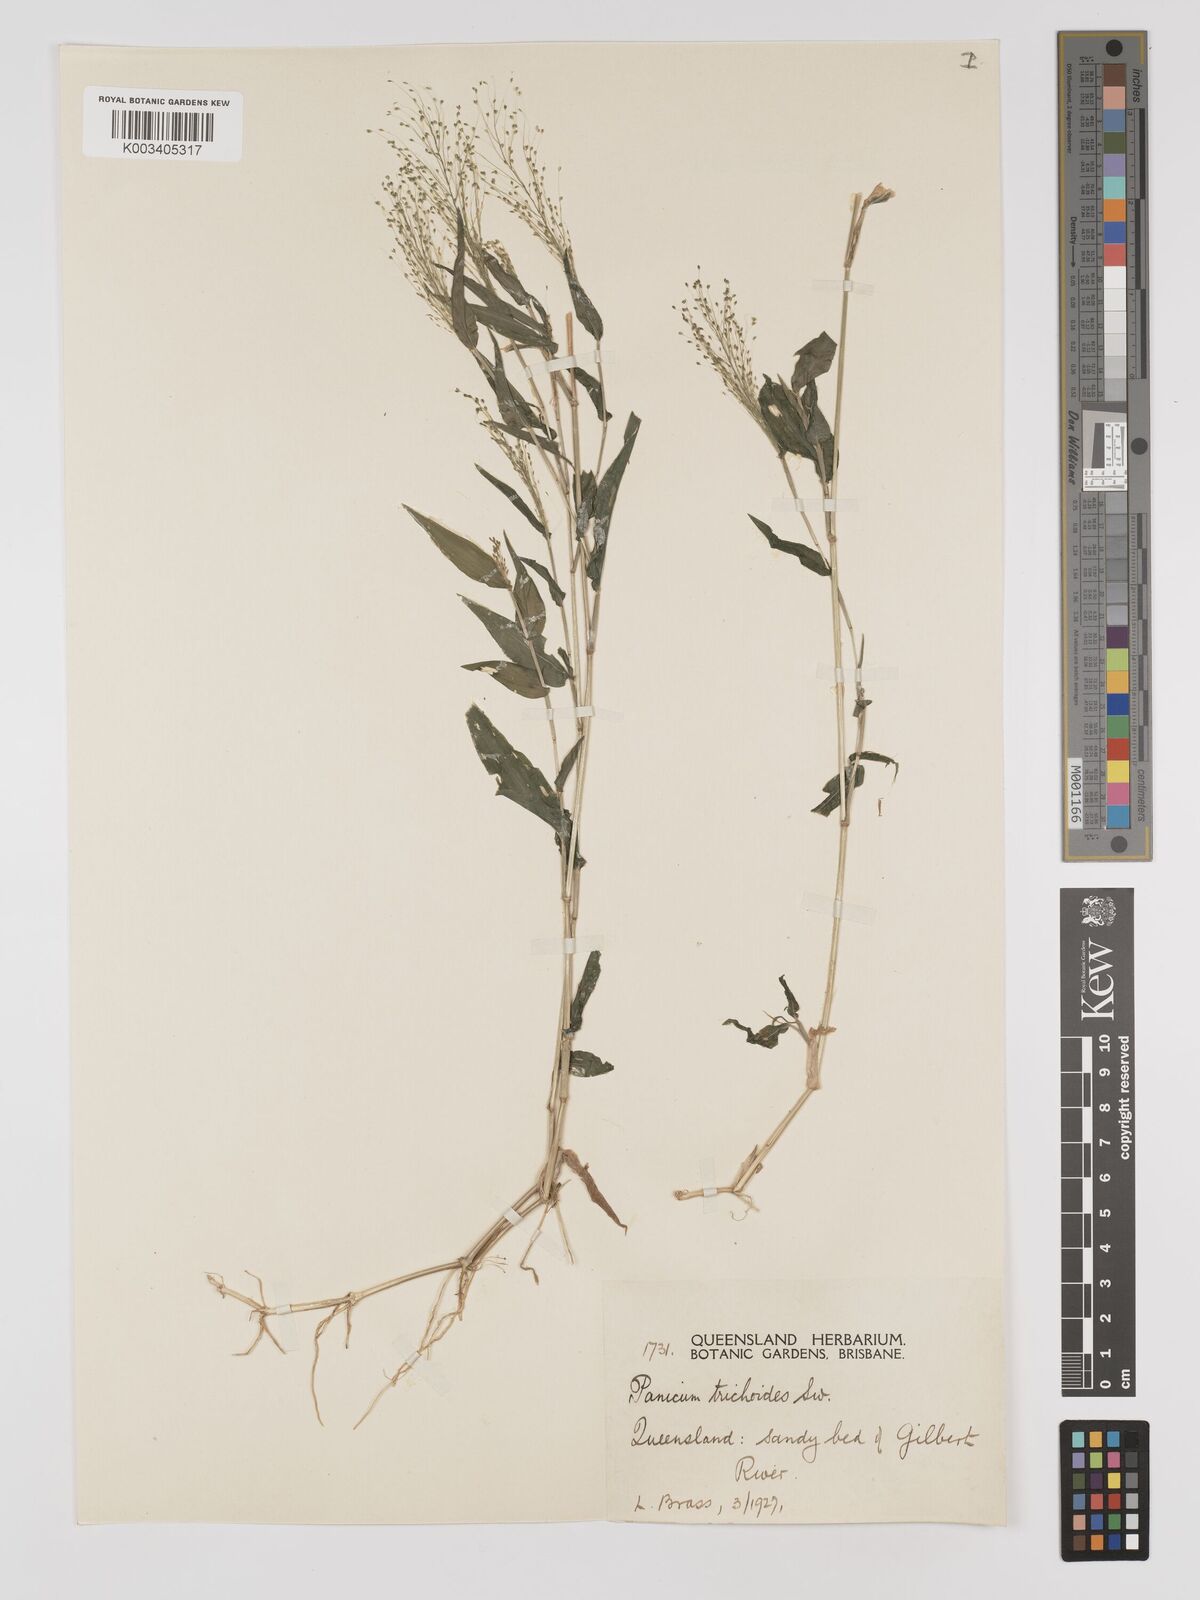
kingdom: Plantae
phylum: Tracheophyta
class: Liliopsida
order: Poales
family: Poaceae
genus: Panicum
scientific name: Panicum trichoides
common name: Tickle grass
